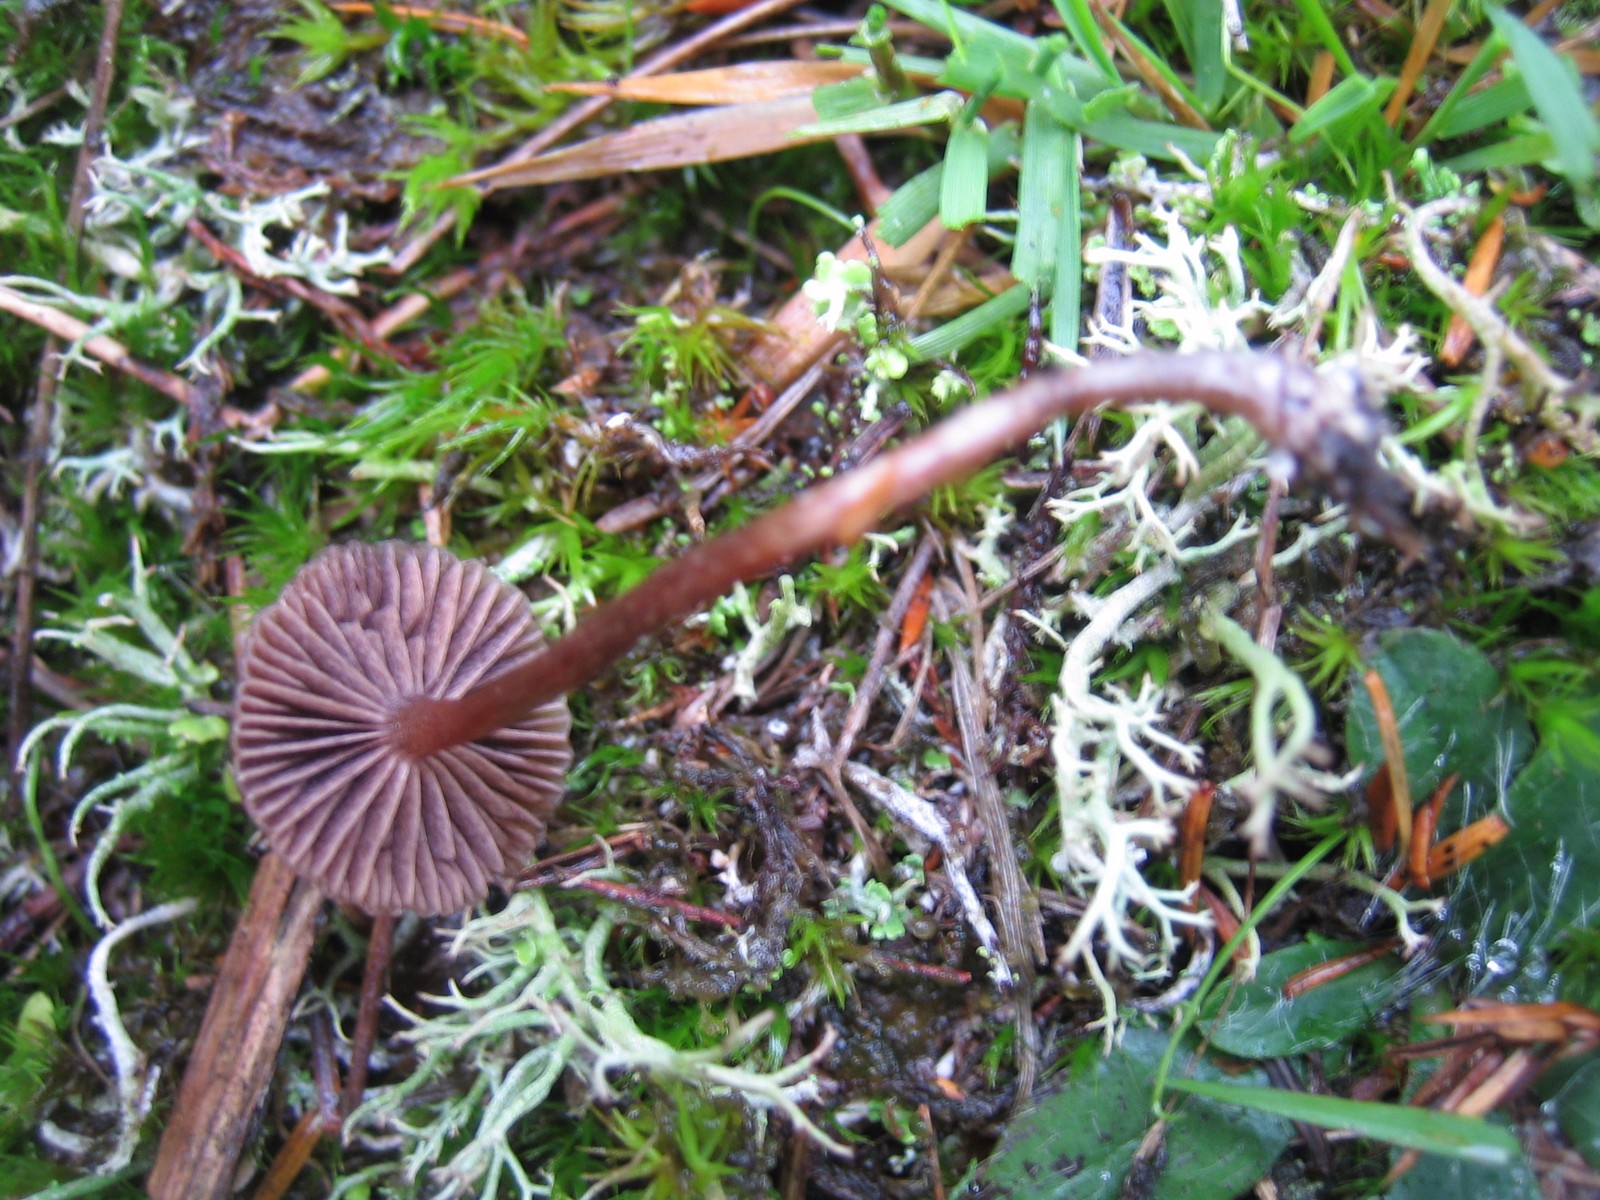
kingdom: Fungi
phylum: Basidiomycota
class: Agaricomycetes
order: Agaricales
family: Strophariaceae
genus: Deconica
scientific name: Deconica montana
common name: rødbrun stråhat
